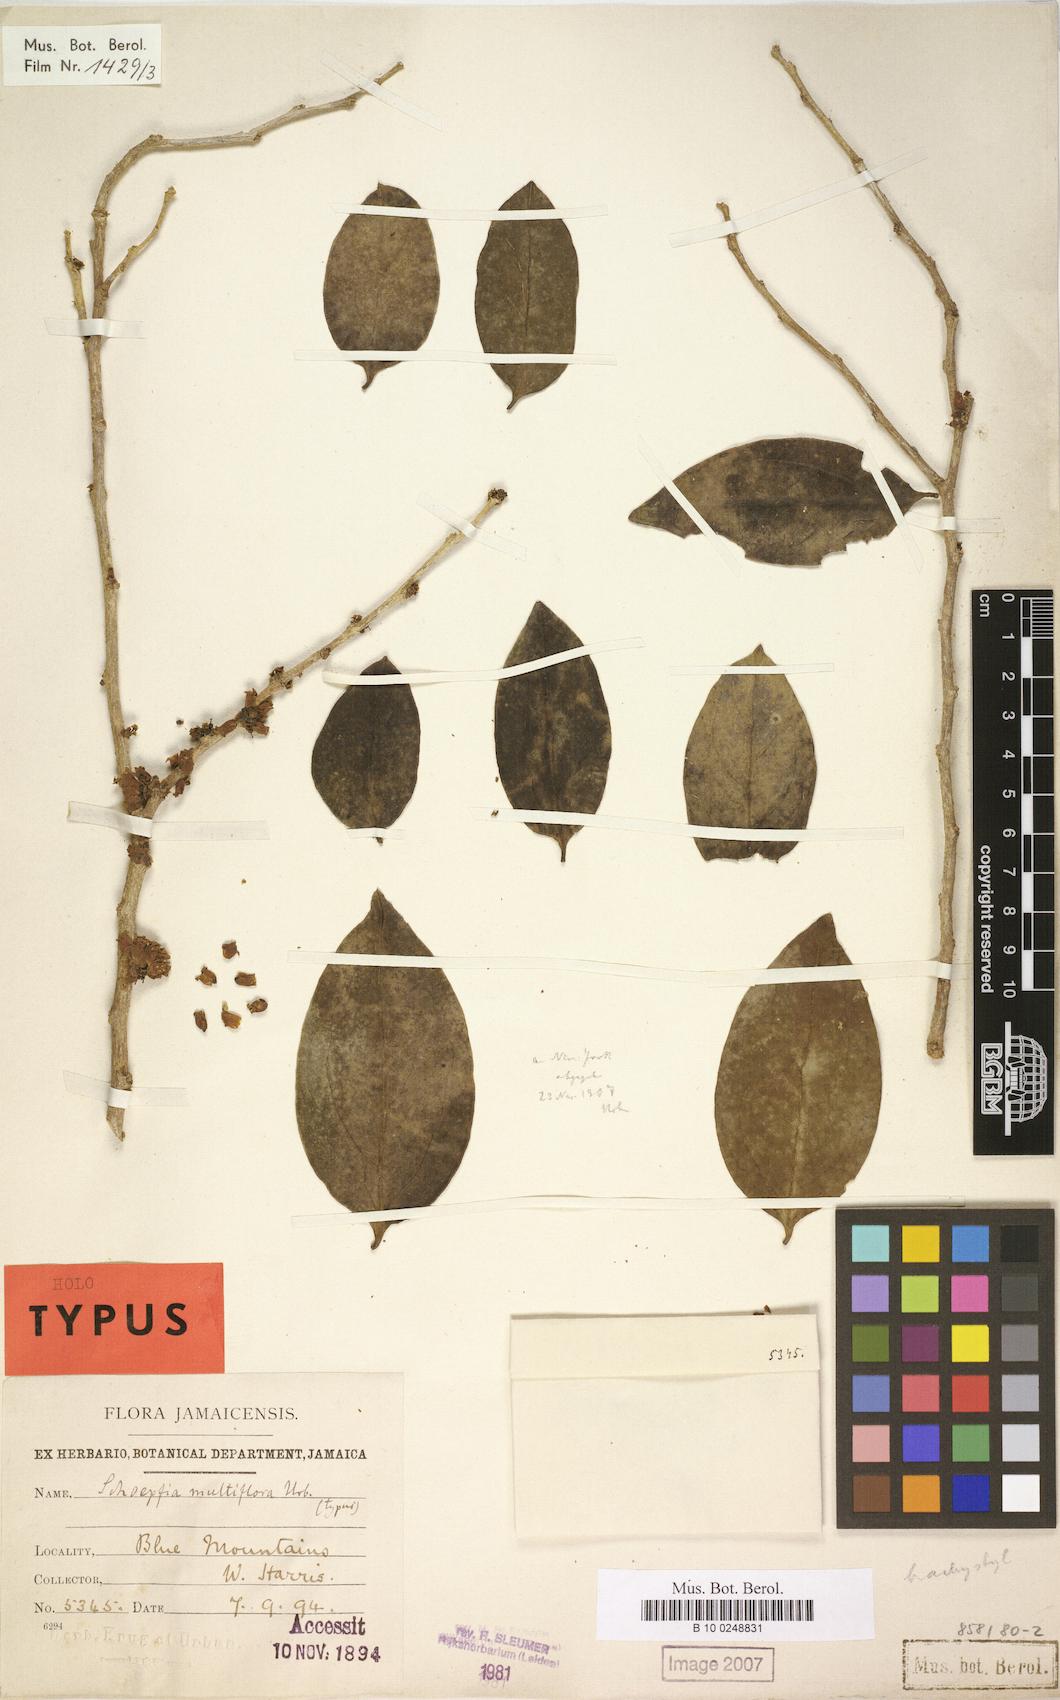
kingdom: Plantae
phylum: Tracheophyta
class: Magnoliopsida
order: Santalales
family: Schoepfiaceae
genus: Schoepfia
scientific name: Schoepfia multiflora
